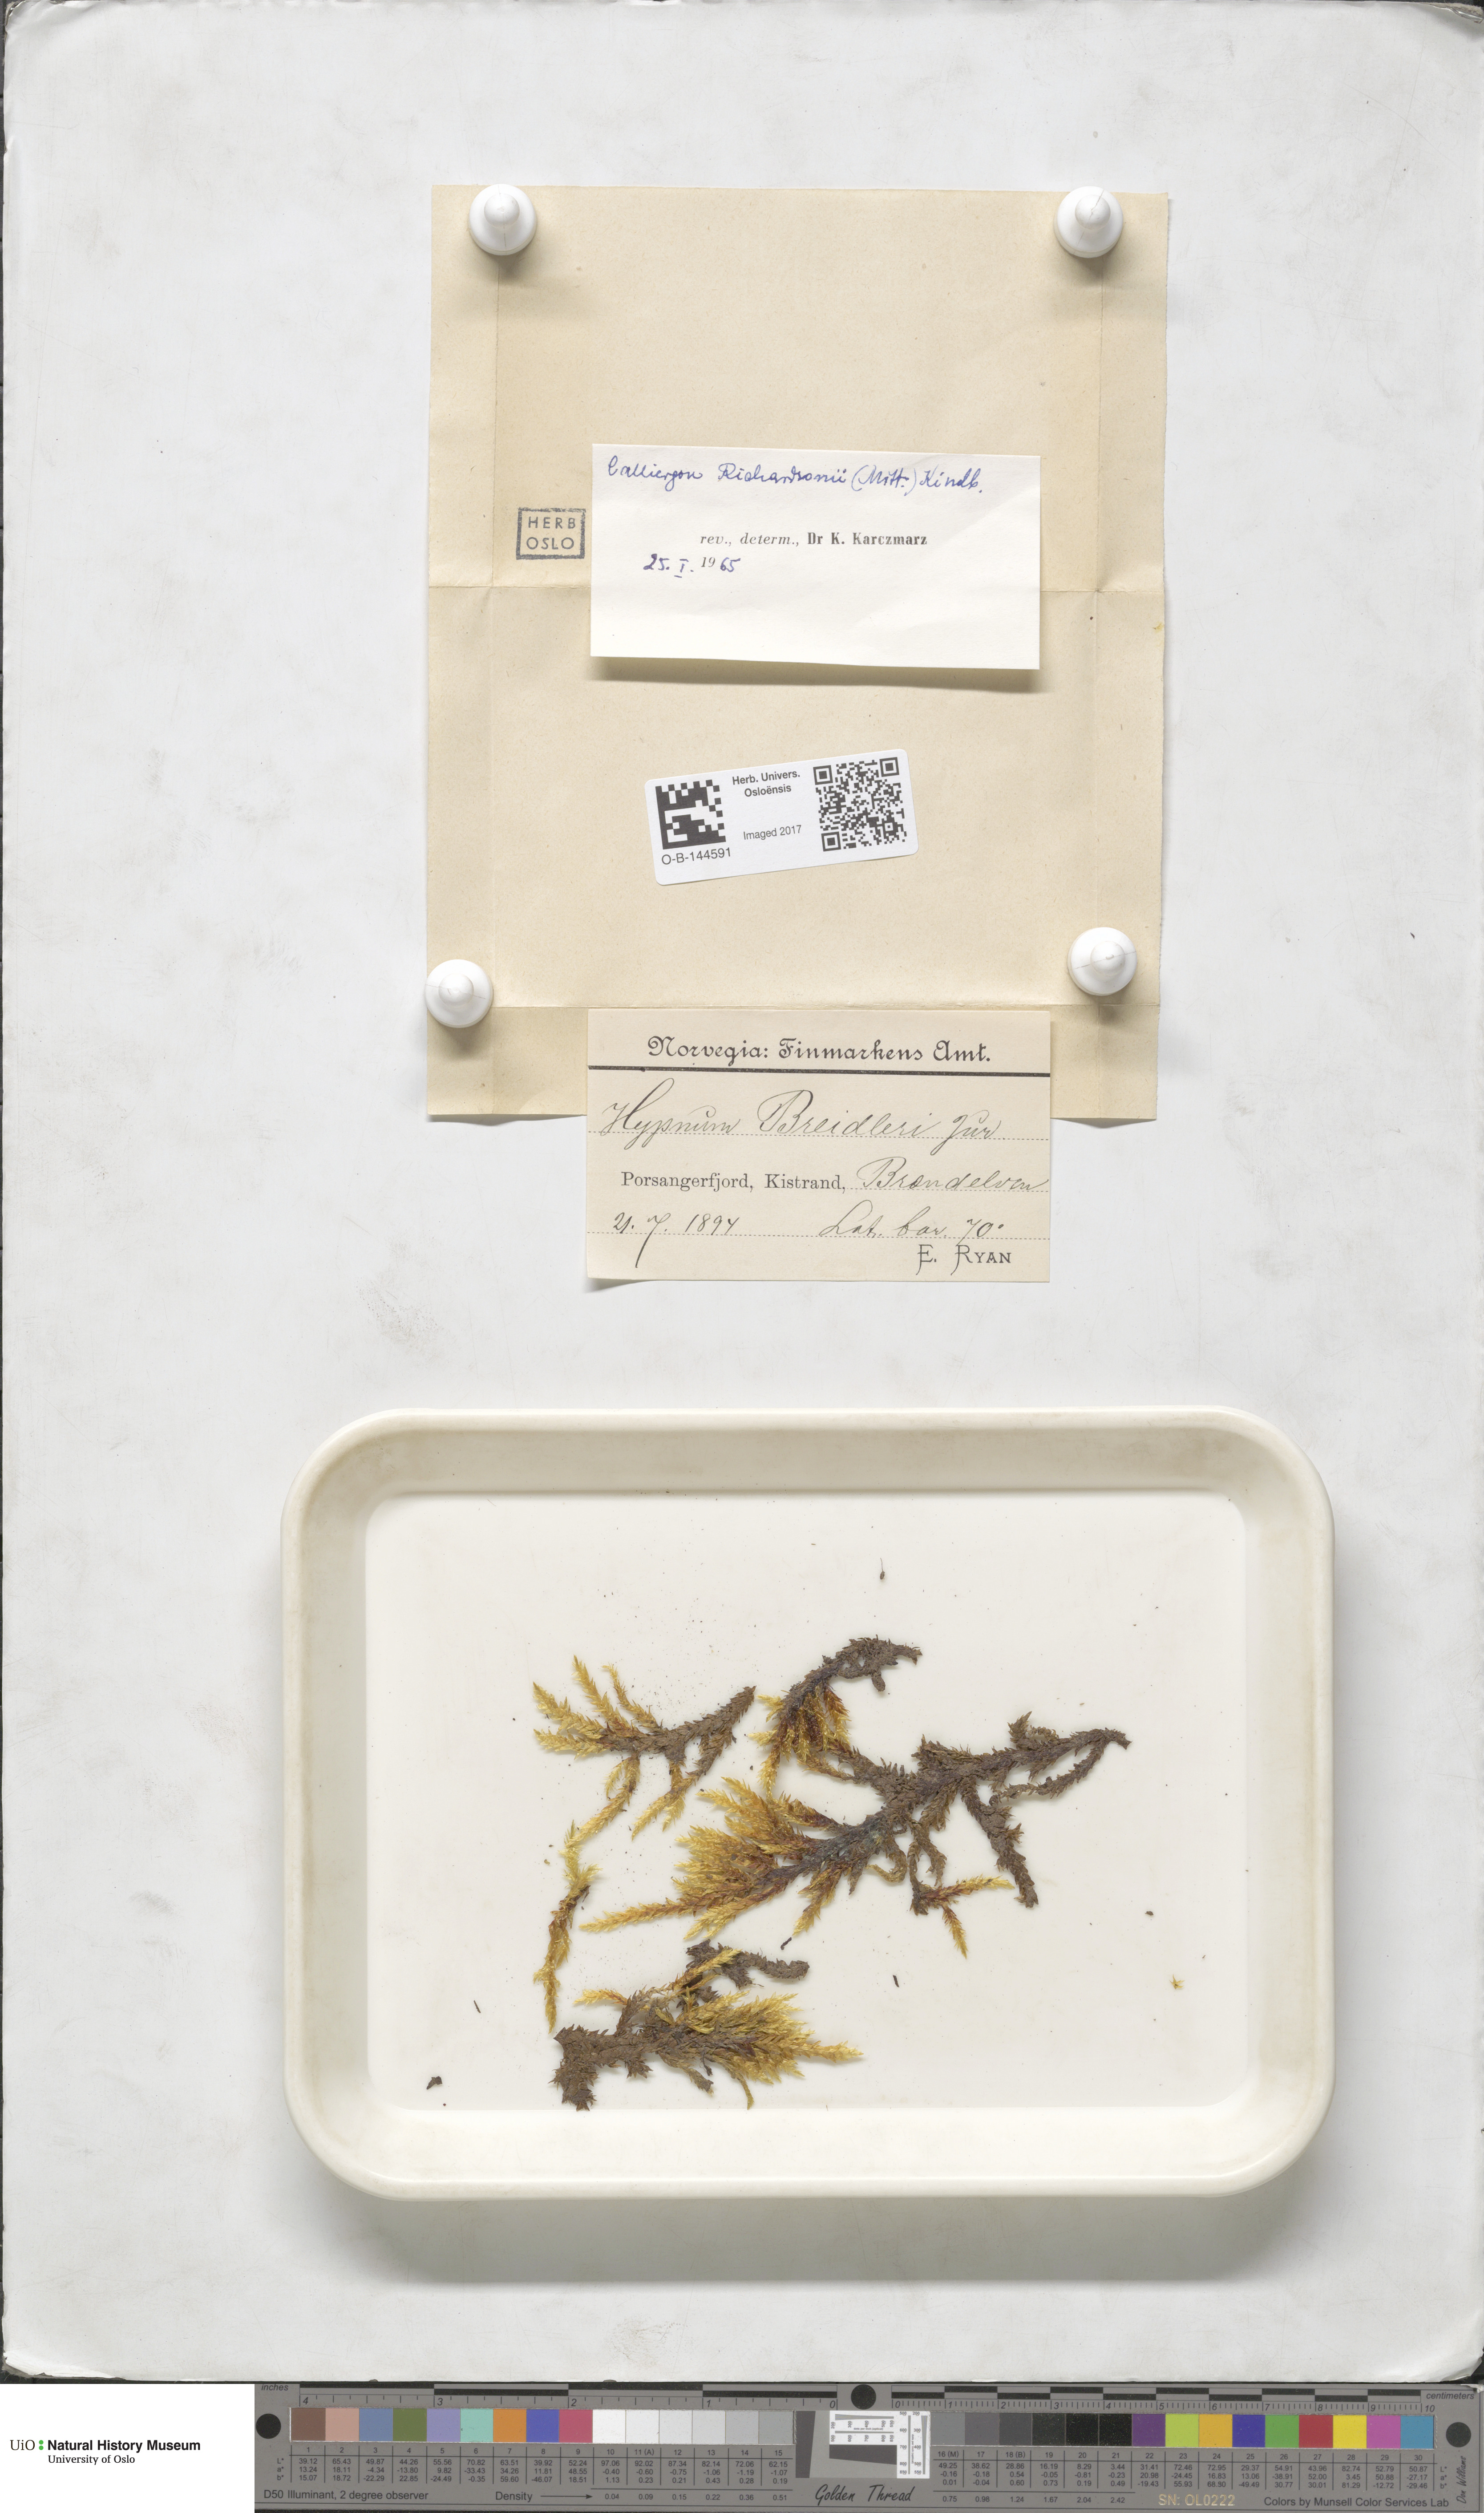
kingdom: Plantae
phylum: Bryophyta
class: Bryopsida
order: Hypnales
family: Calliergonaceae
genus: Calliergon
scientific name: Calliergon richardsonii
